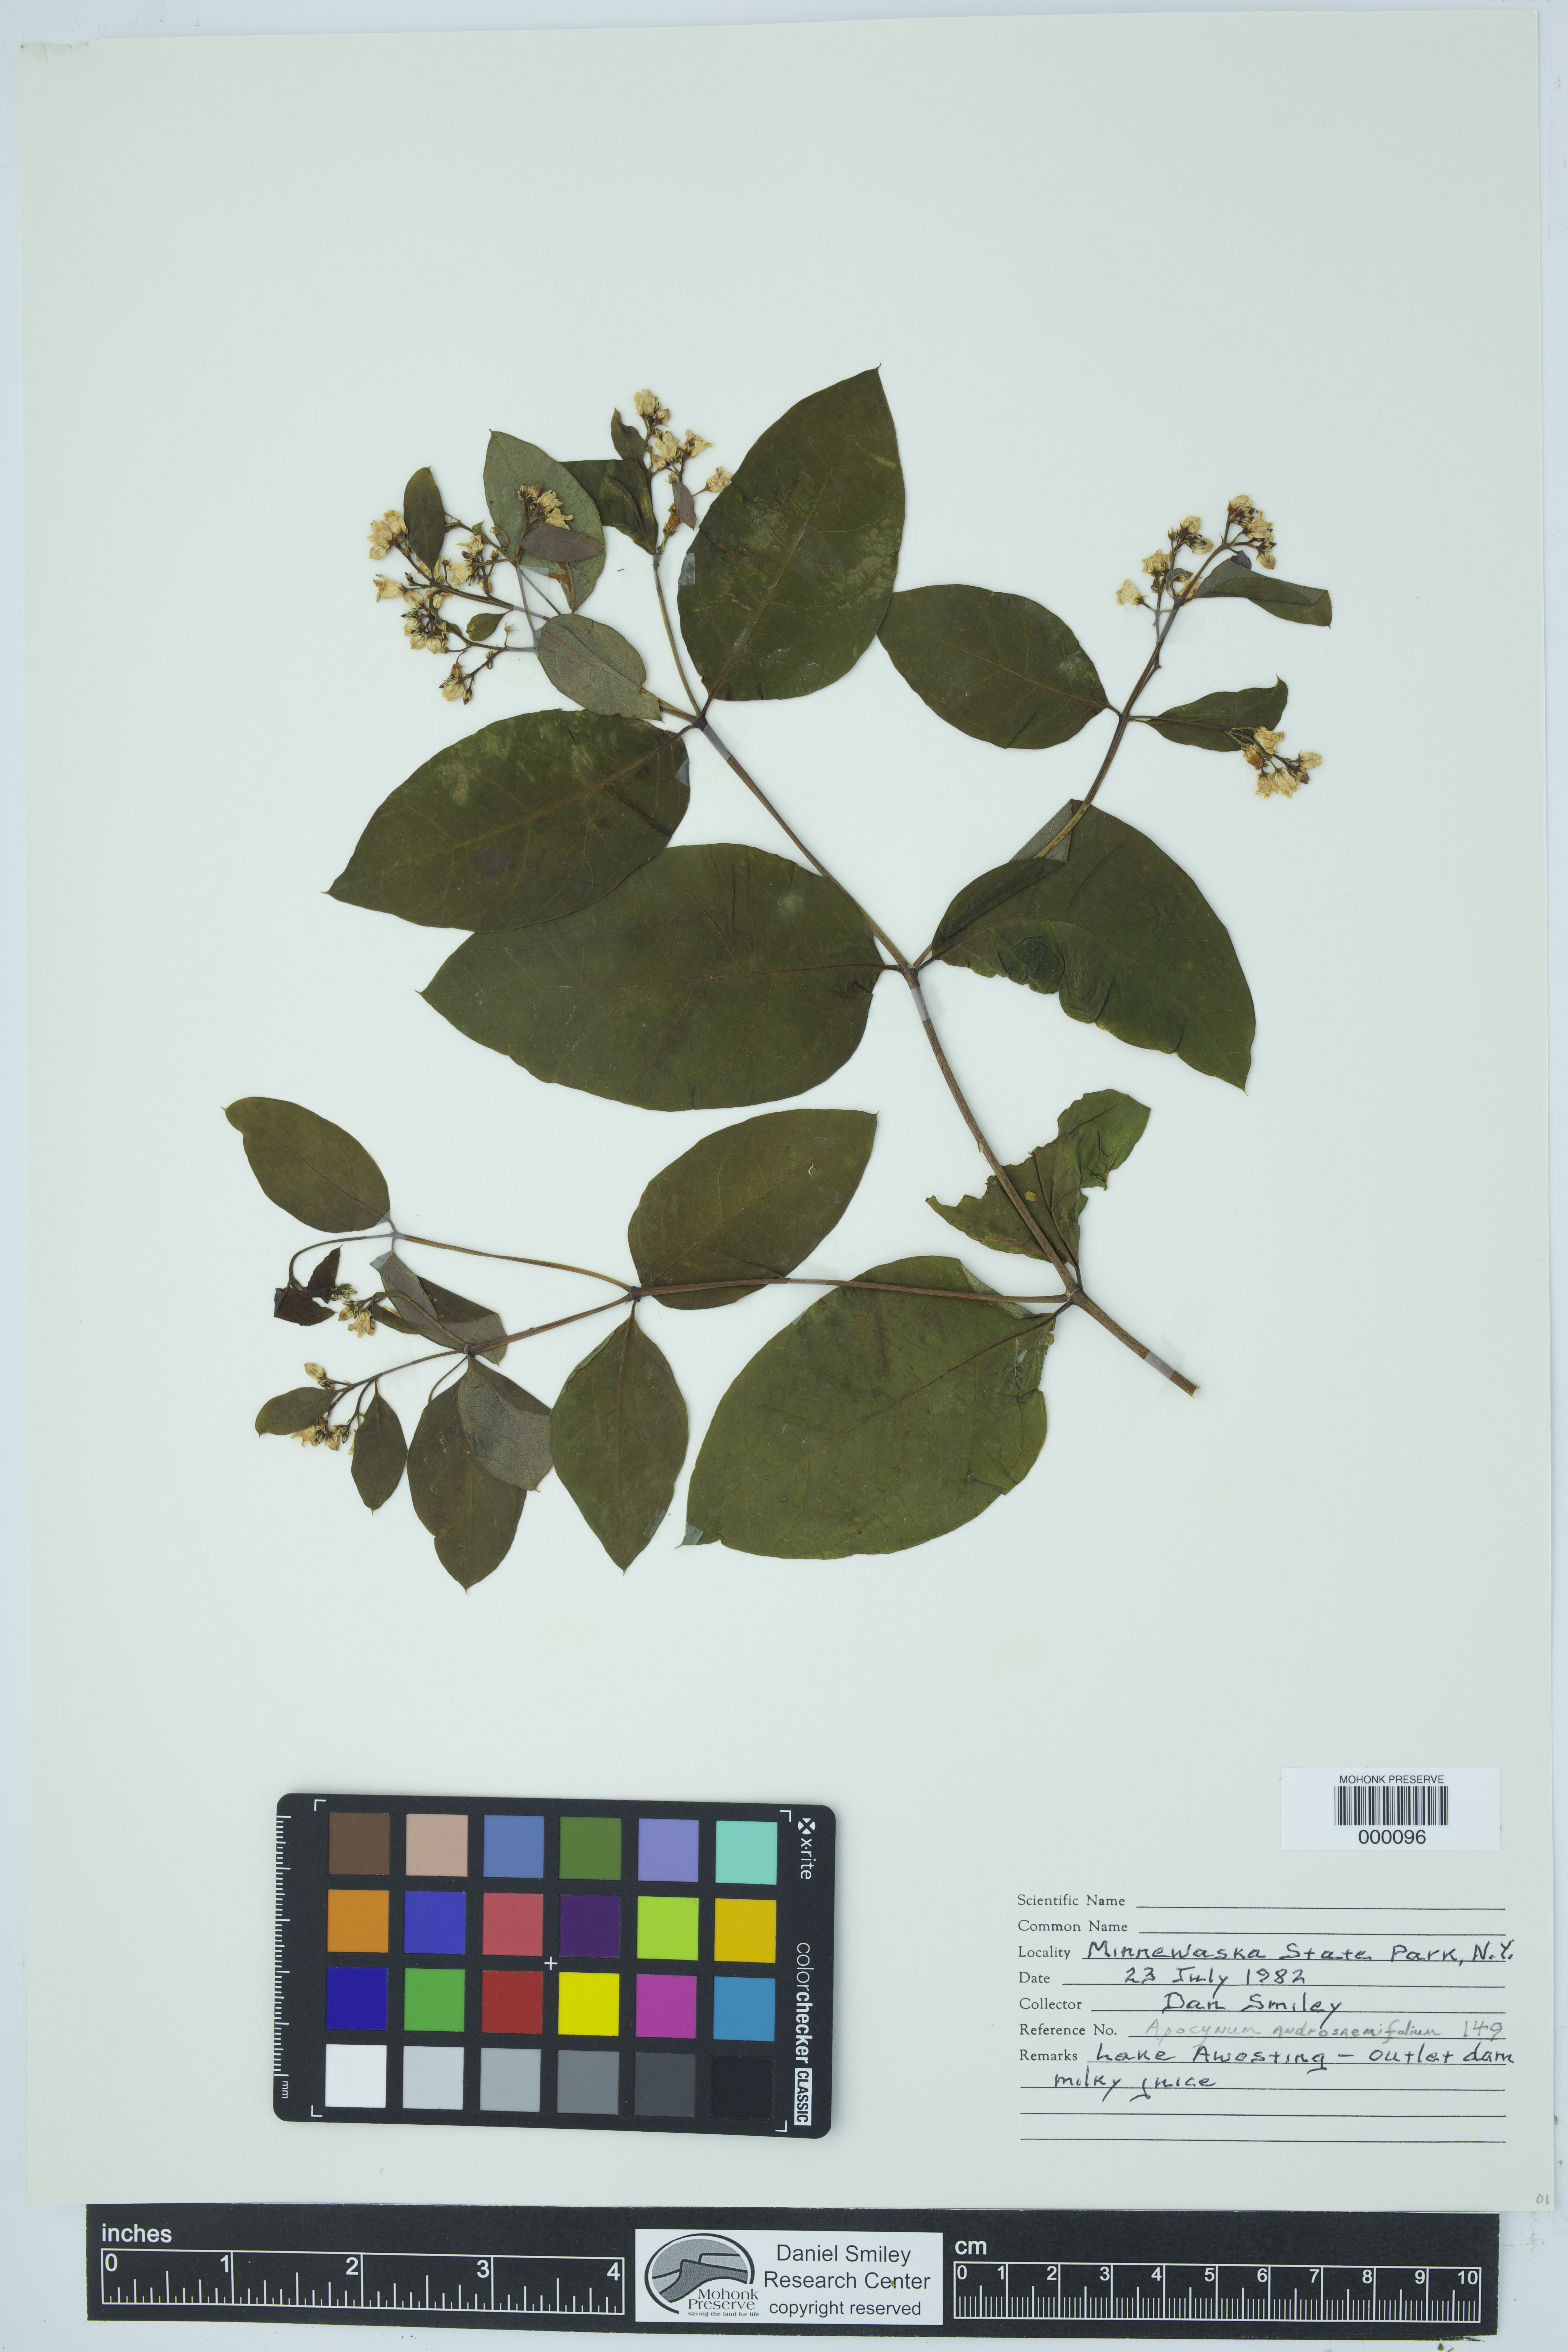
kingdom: Plantae
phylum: Tracheophyta
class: Magnoliopsida
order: Gentianales
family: Apocynaceae
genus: Apocynum
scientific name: Apocynum cannabinum
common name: Hemp dogbane
